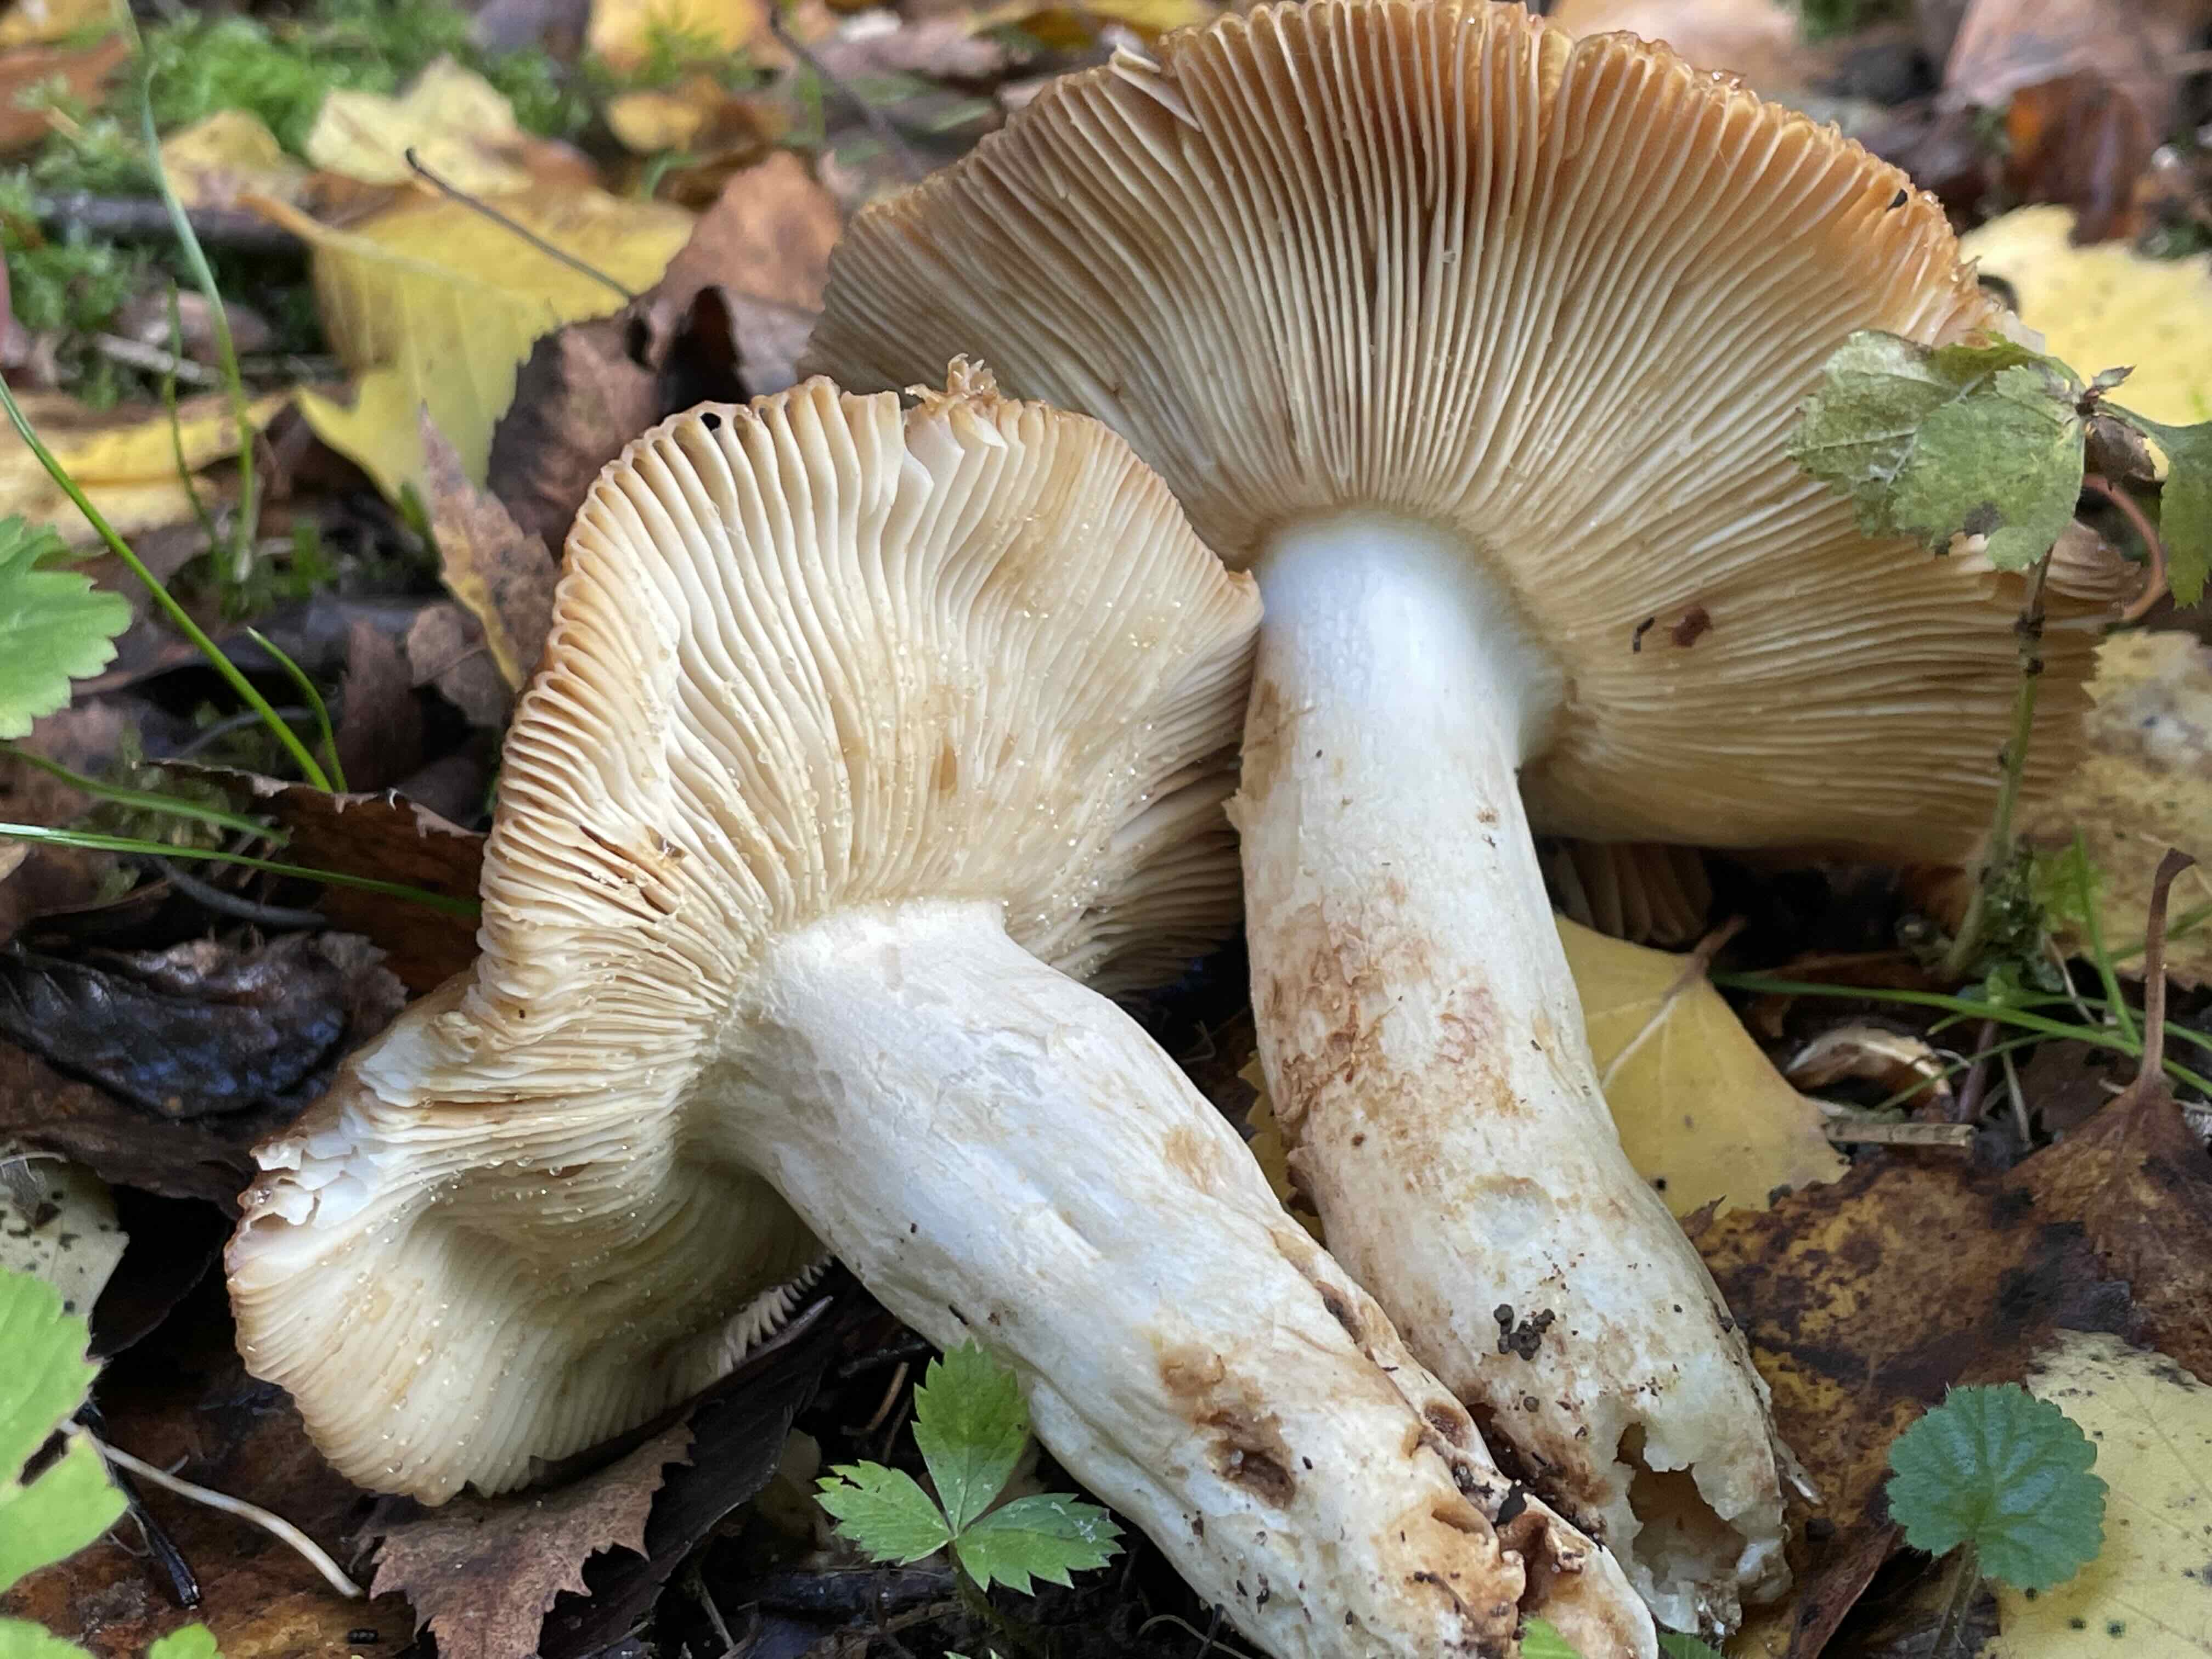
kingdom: Fungi
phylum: Basidiomycota
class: Agaricomycetes
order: Russulales
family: Russulaceae
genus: Russula
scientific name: Russula foetens
